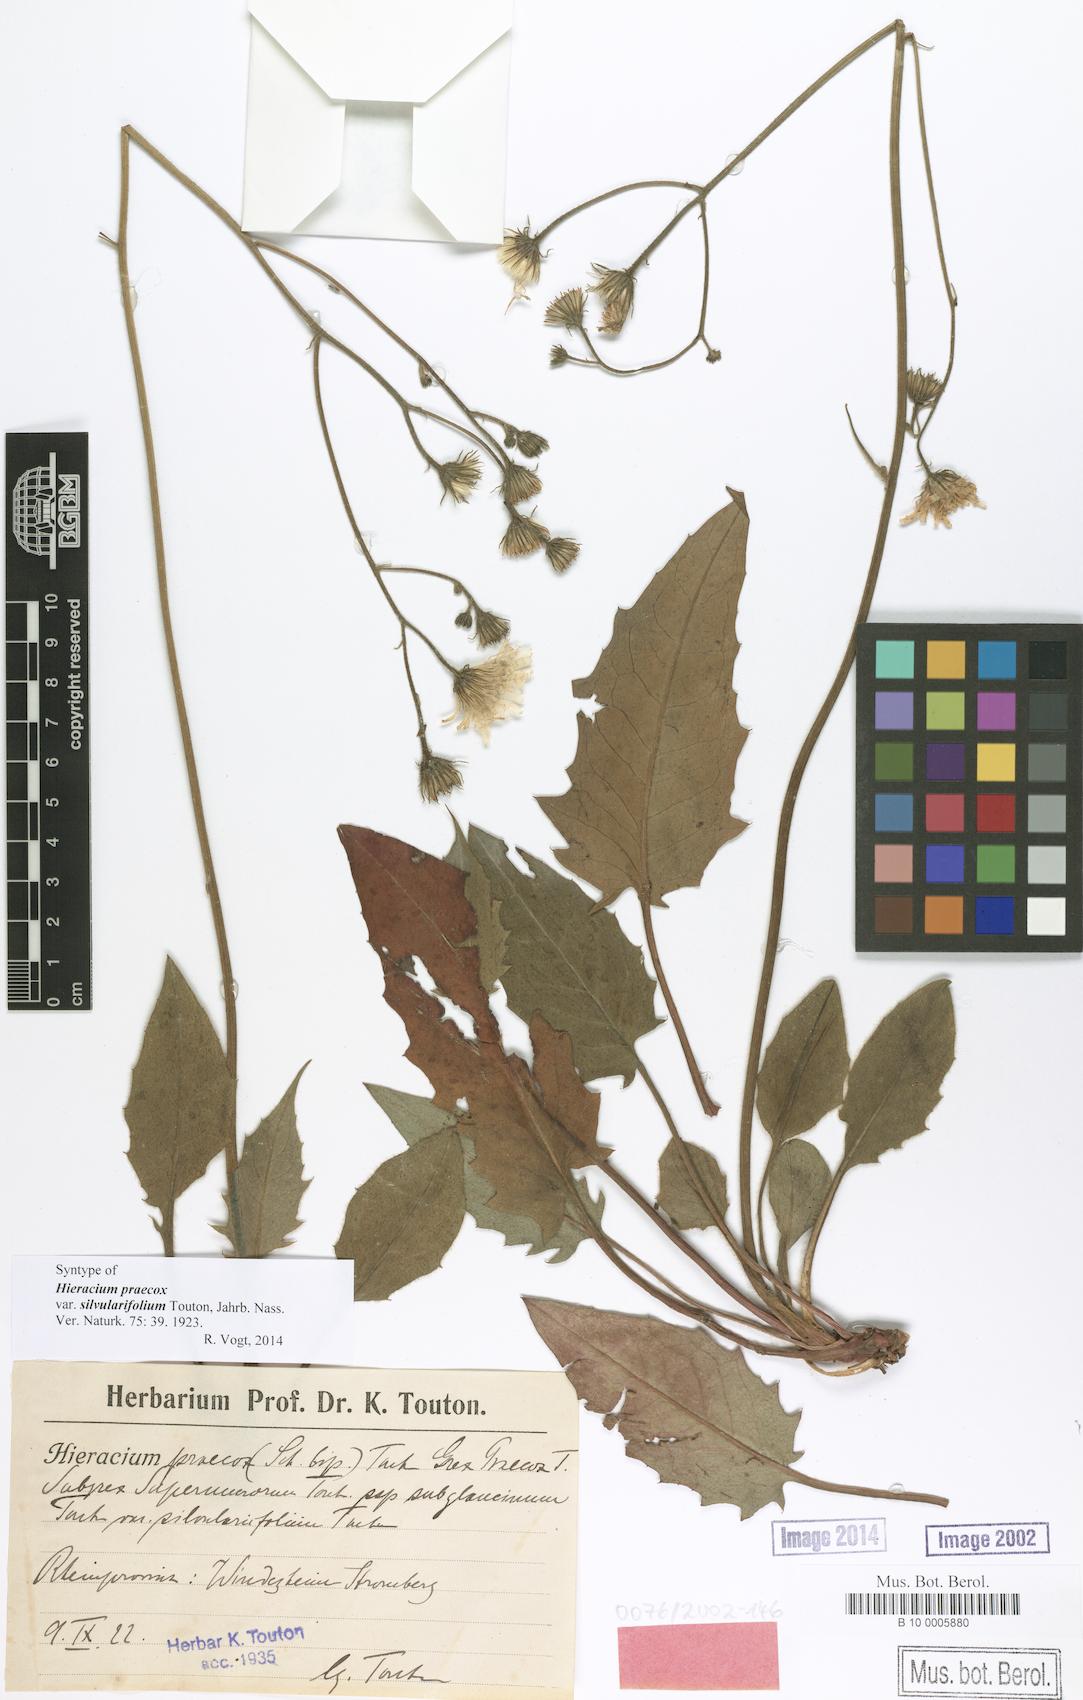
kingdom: Plantae
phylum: Tracheophyta
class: Magnoliopsida
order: Asterales
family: Asteraceae
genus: Hieracium
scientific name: Hieracium praecox
